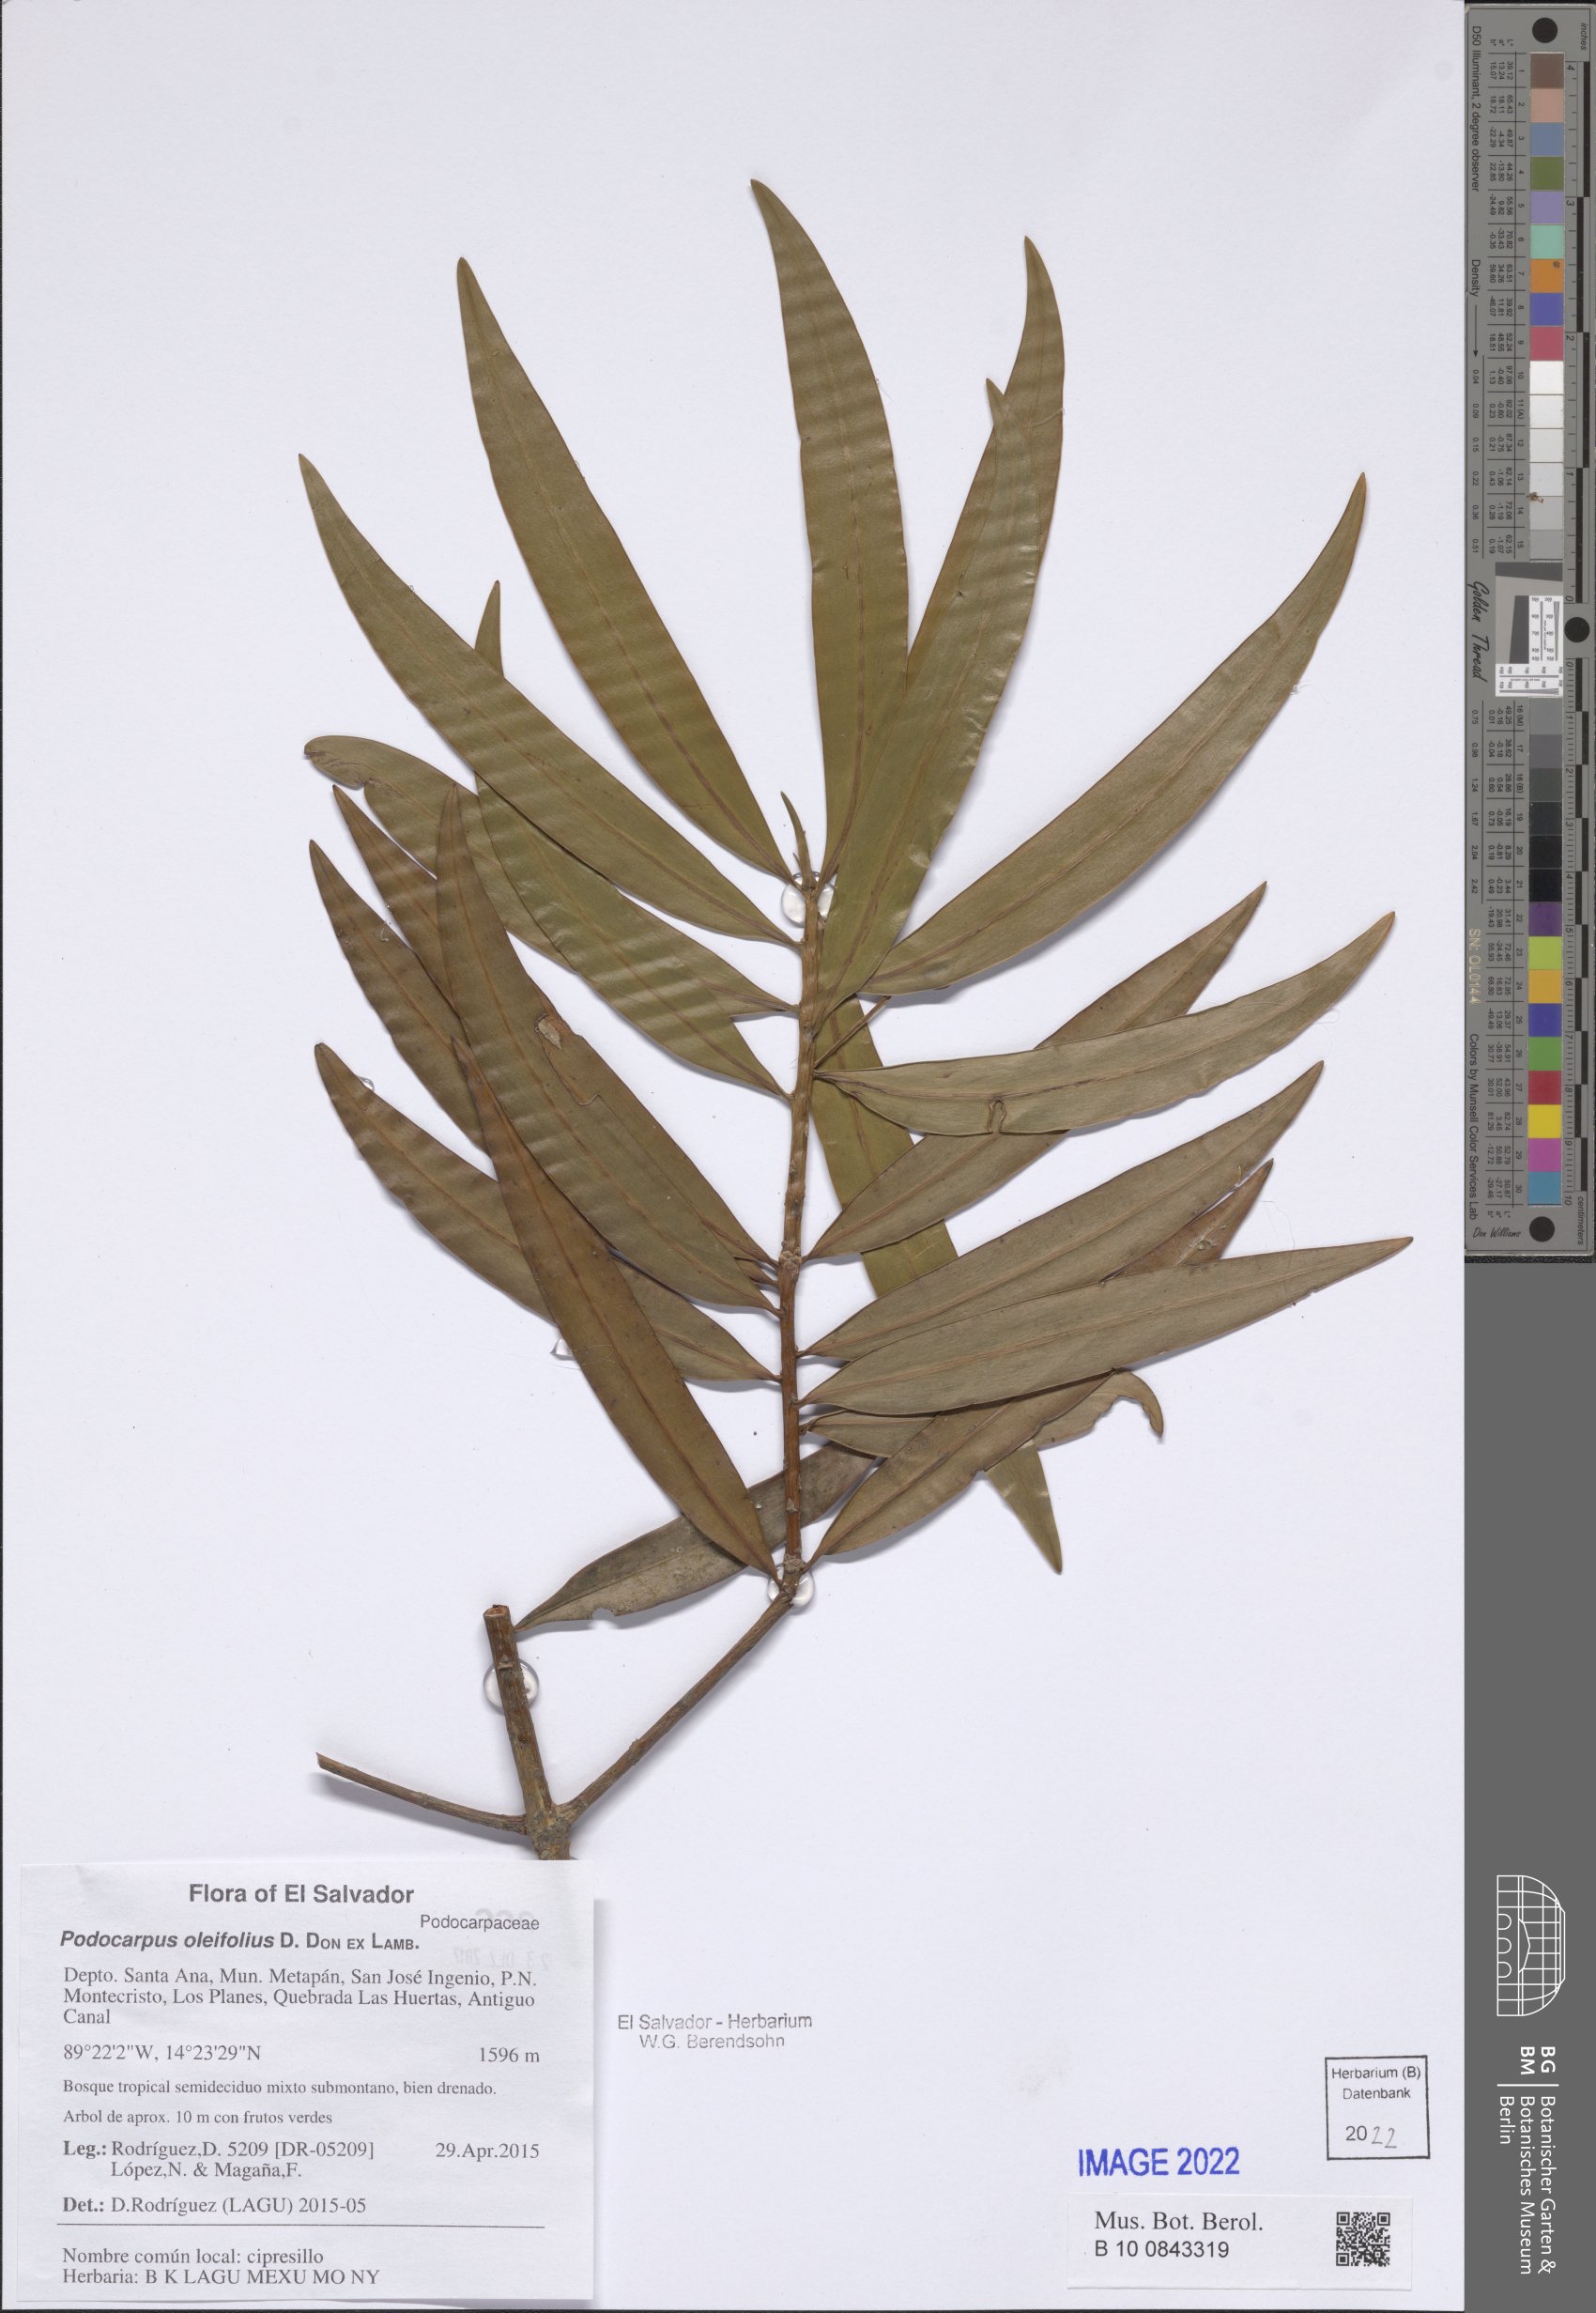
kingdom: Plantae
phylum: Tracheophyta
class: Pinopsida
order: Pinales
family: Podocarpaceae
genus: Podocarpus
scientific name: Podocarpus oleifolius
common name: Olive-leaf podoberry
